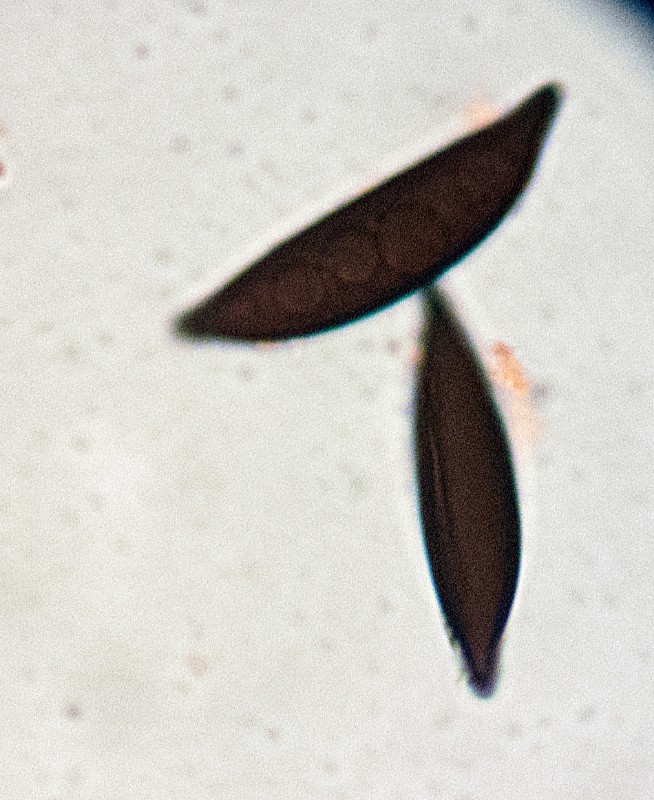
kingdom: Fungi
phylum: Ascomycota
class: Sordariomycetes
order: Xylariales
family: Xylariaceae
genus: Rosellinia
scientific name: Rosellinia desmazieri
